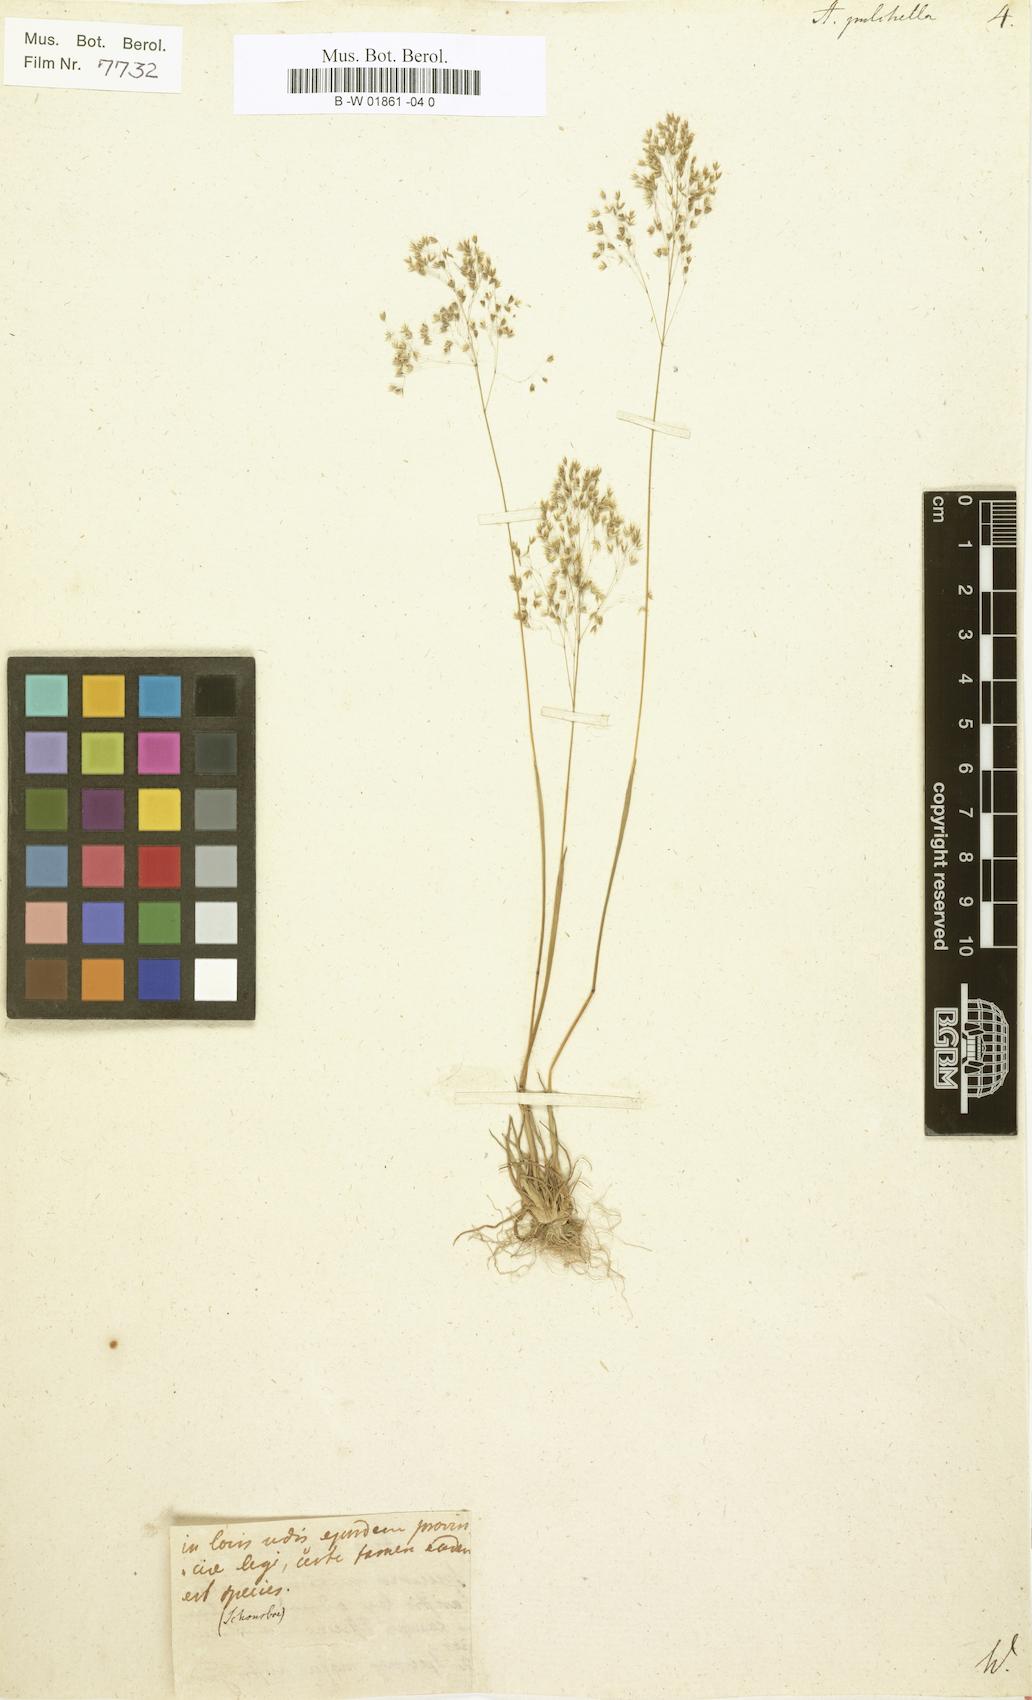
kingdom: Plantae
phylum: Tracheophyta
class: Liliopsida
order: Poales
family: Poaceae
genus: Molineriella
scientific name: Molineriella laevis
